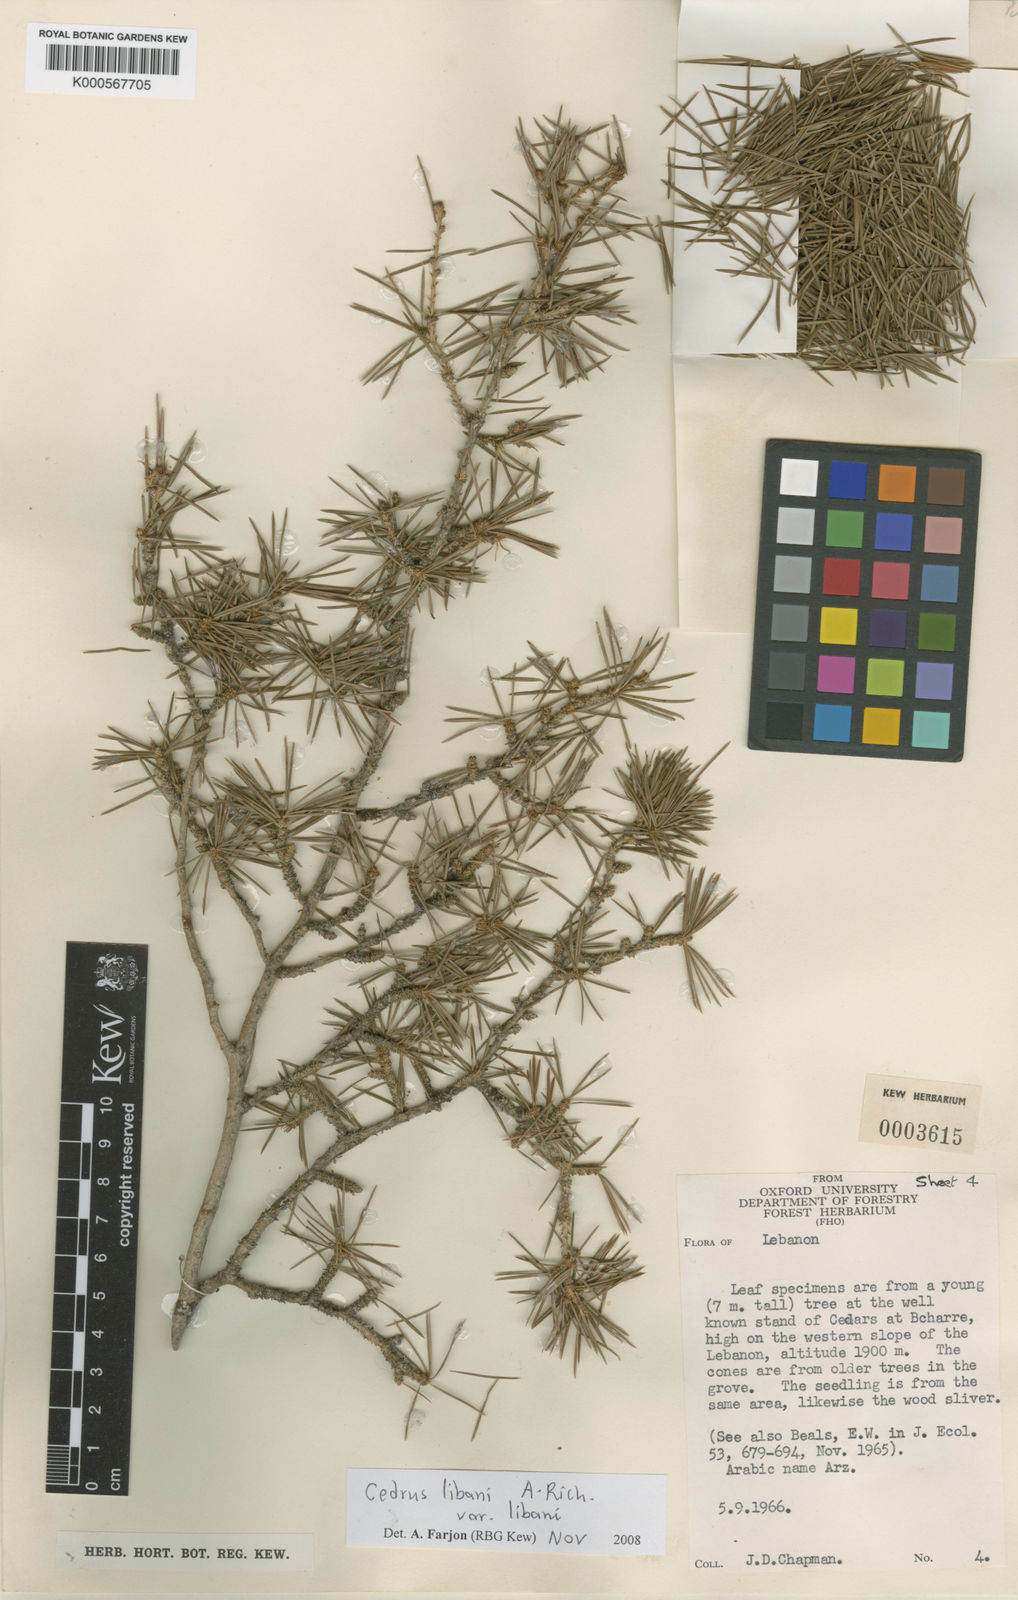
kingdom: Plantae
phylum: Tracheophyta
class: Pinopsida
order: Pinales
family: Pinaceae
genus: Cedrus
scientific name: Cedrus libani
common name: Cedar-of-lebanon
